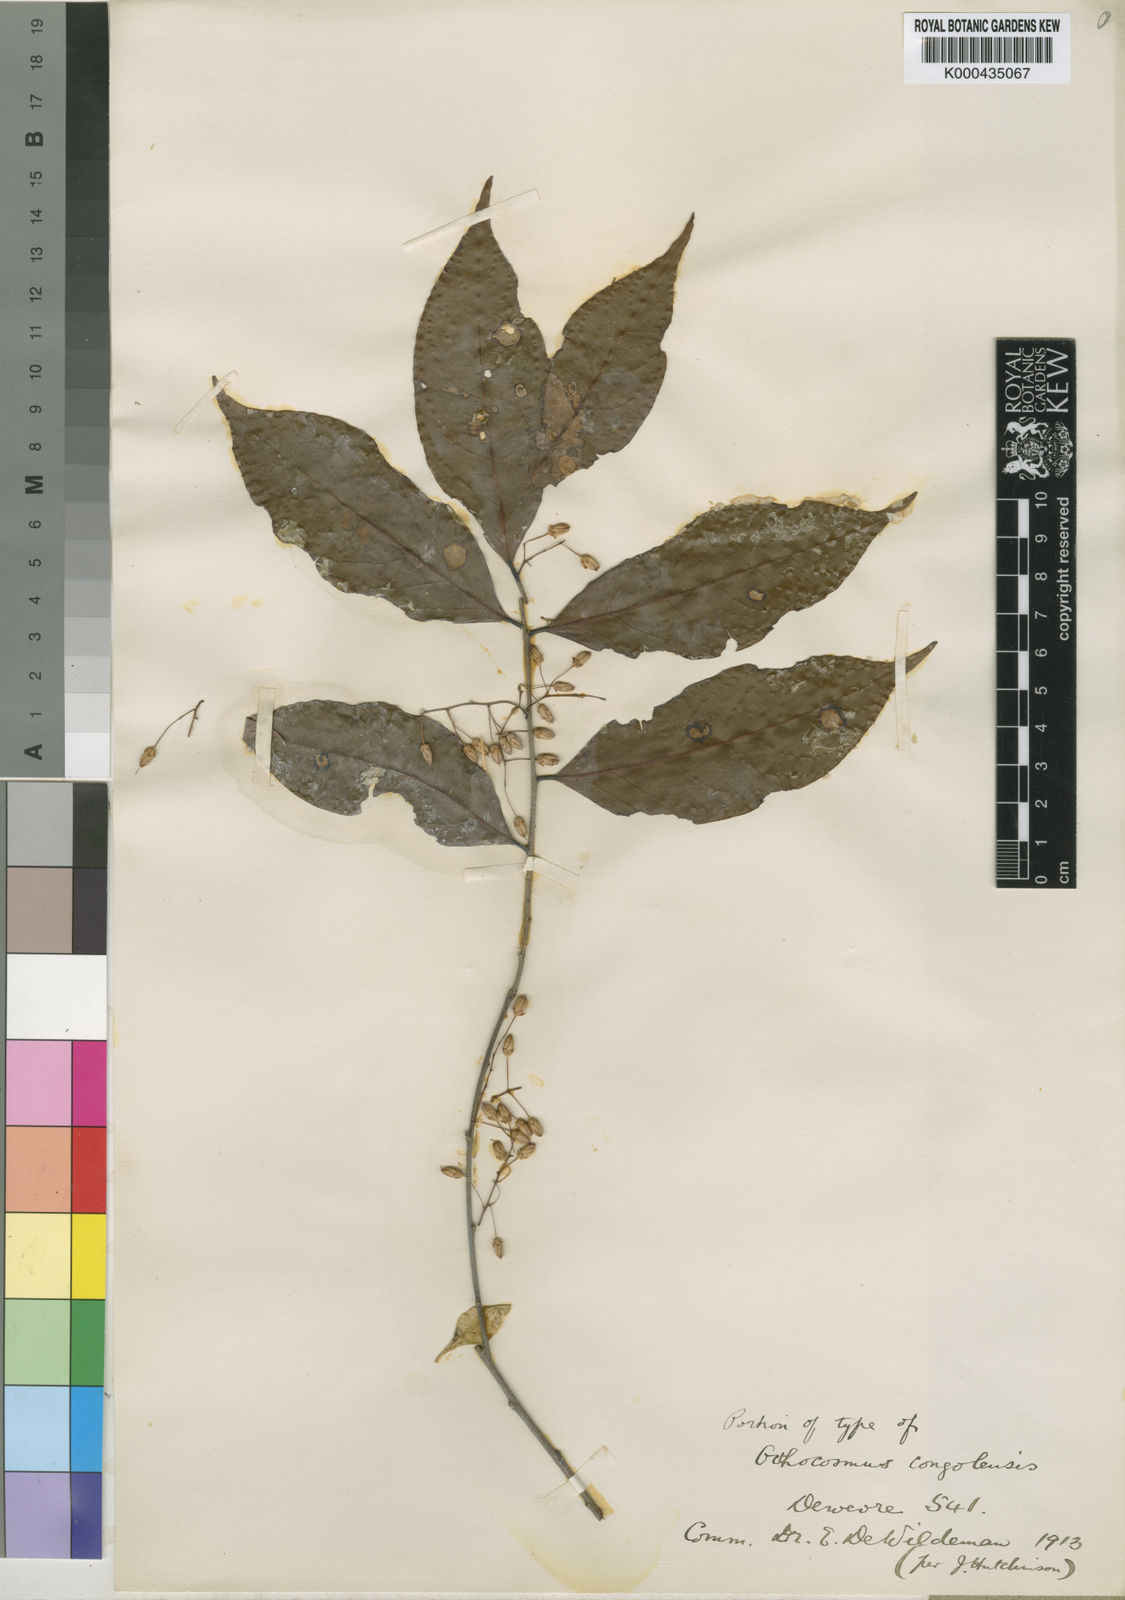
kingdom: Plantae
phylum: Tracheophyta
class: Magnoliopsida
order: Malpighiales
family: Ixonanthaceae
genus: Phyllocosmus
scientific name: Phyllocosmus congolensis
